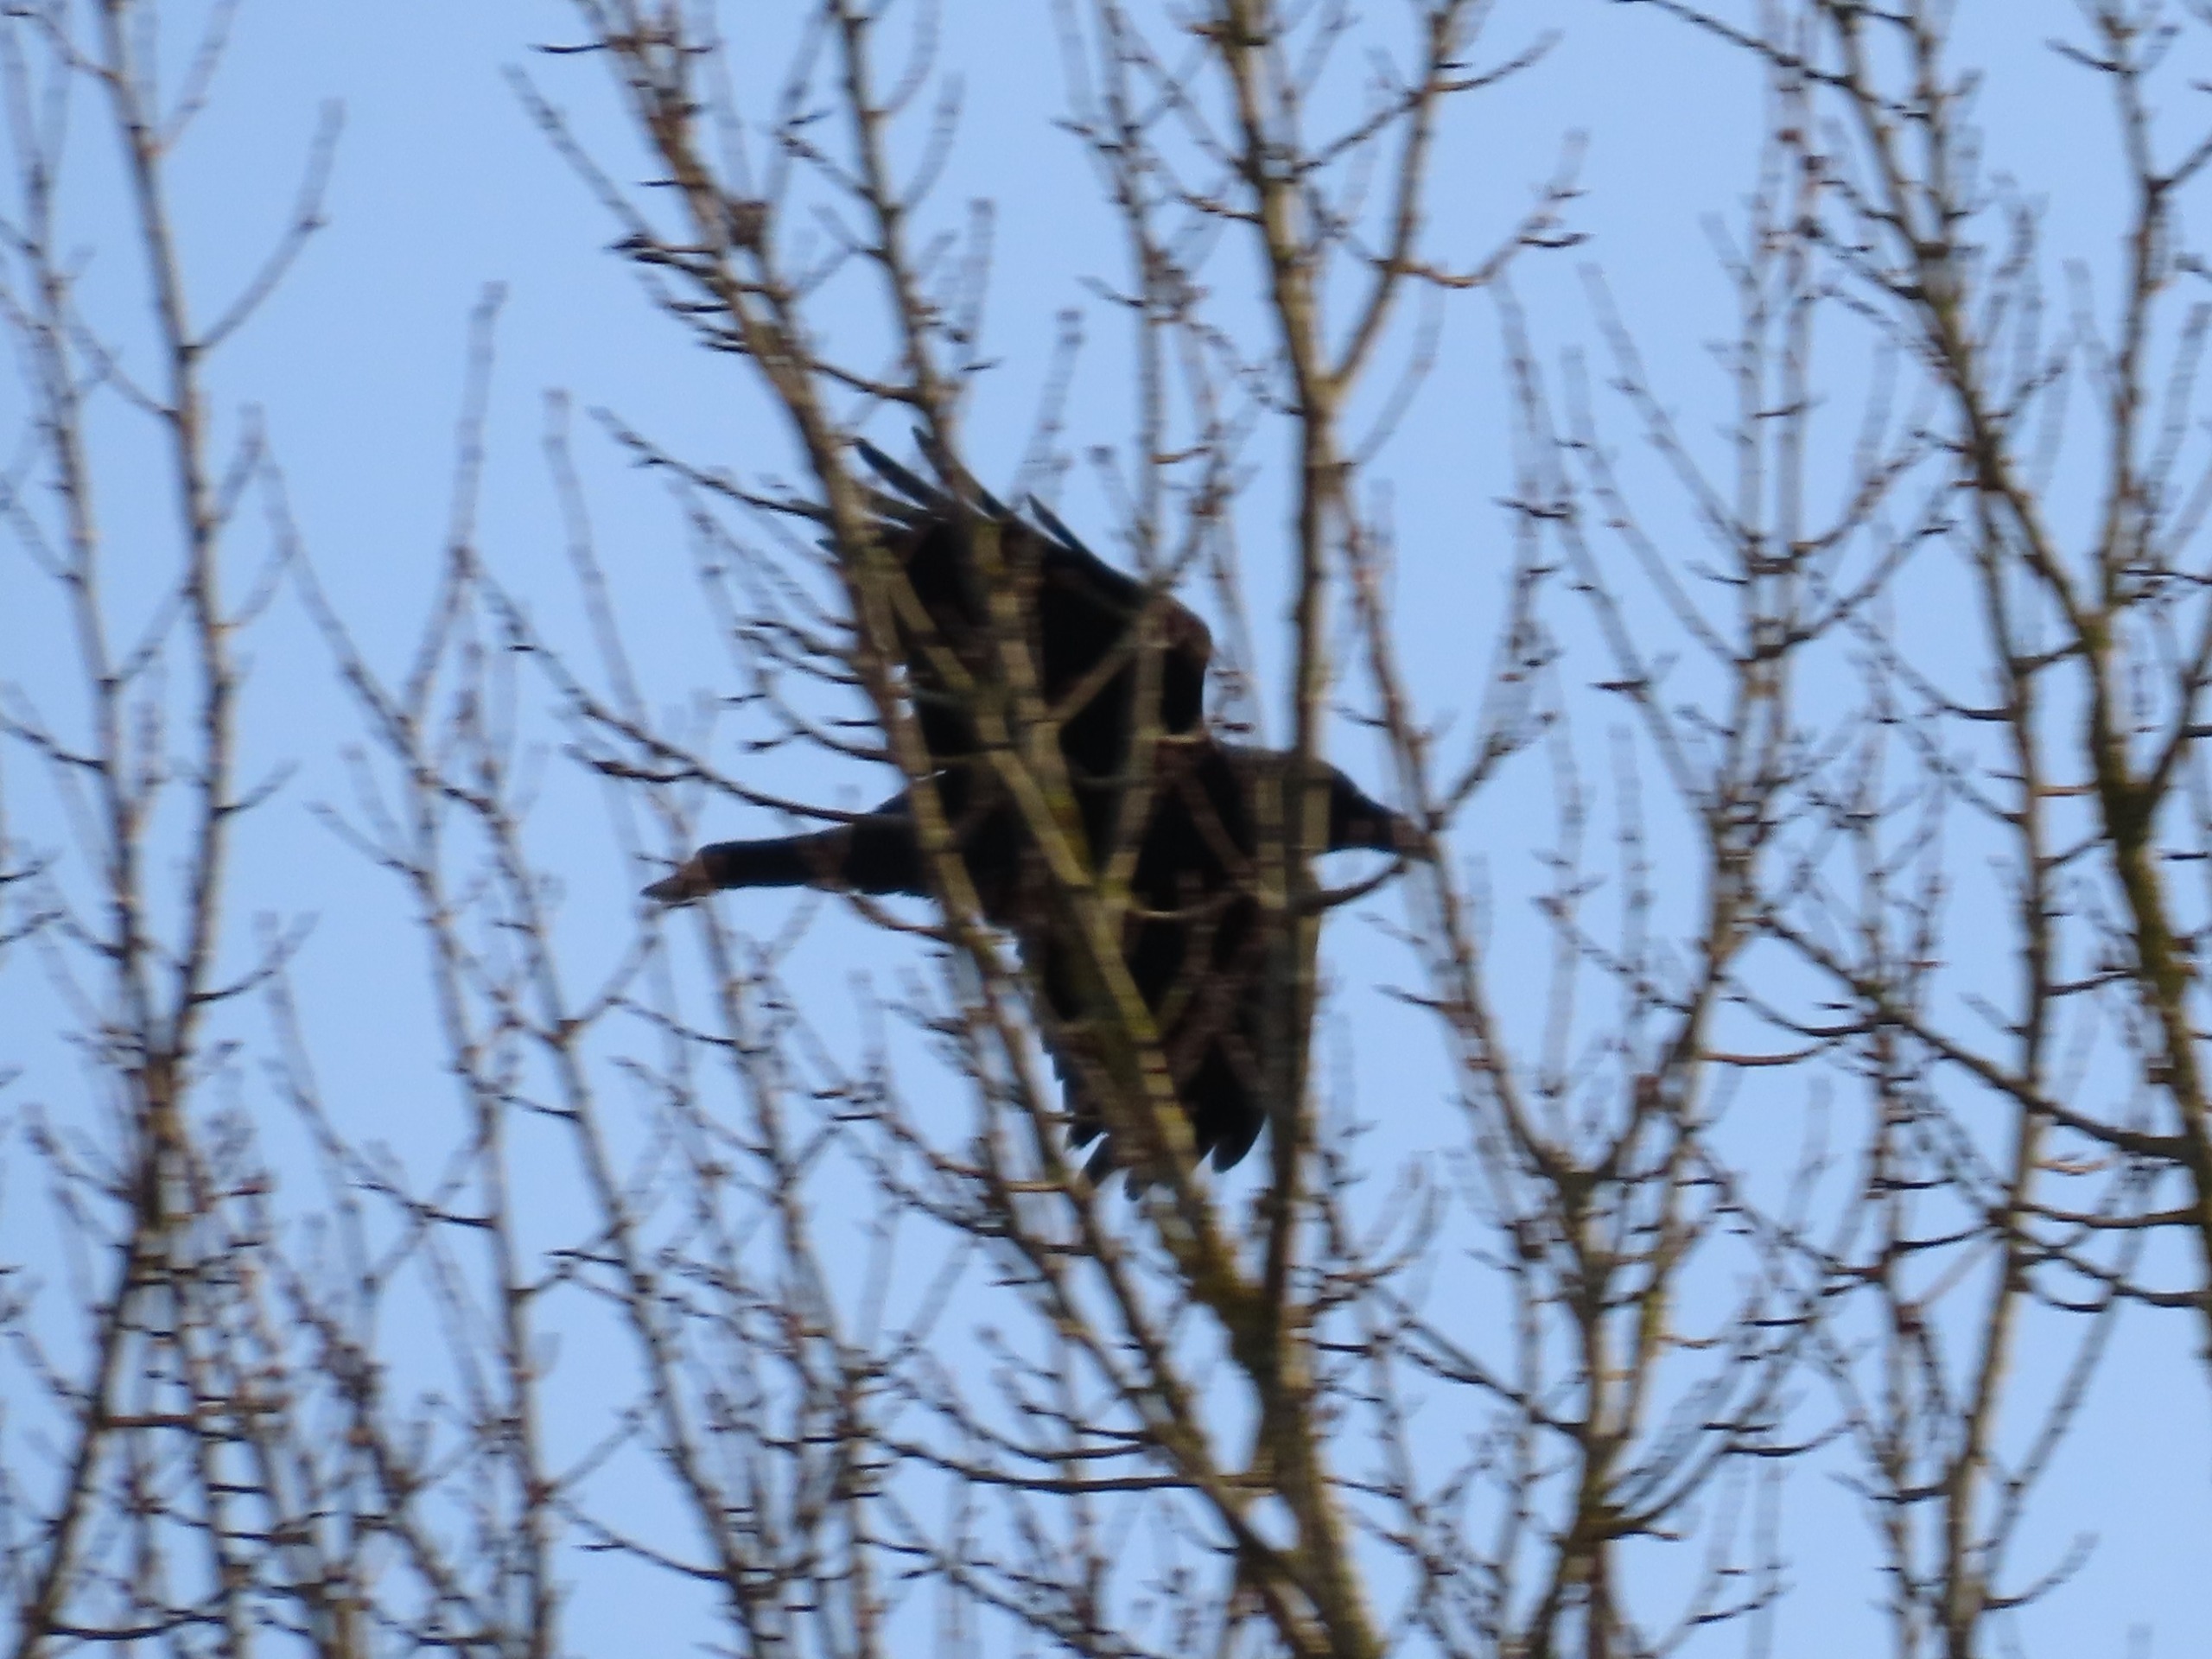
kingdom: Animalia
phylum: Chordata
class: Aves
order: Passeriformes
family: Corvidae
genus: Corvus
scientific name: Corvus corax
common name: Ravn
